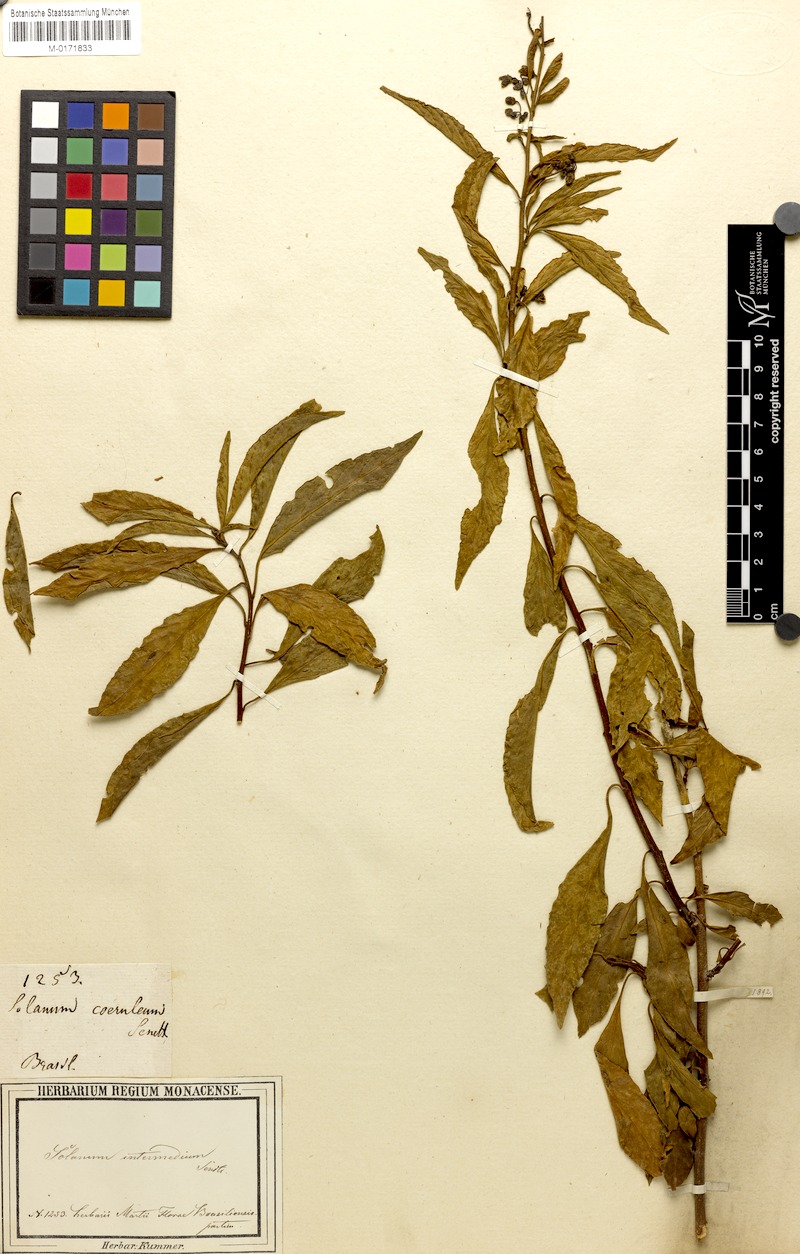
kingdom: Plantae
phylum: Tracheophyta
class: Magnoliopsida
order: Solanales
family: Solanaceae
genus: Solanum
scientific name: Solanum intermedium
